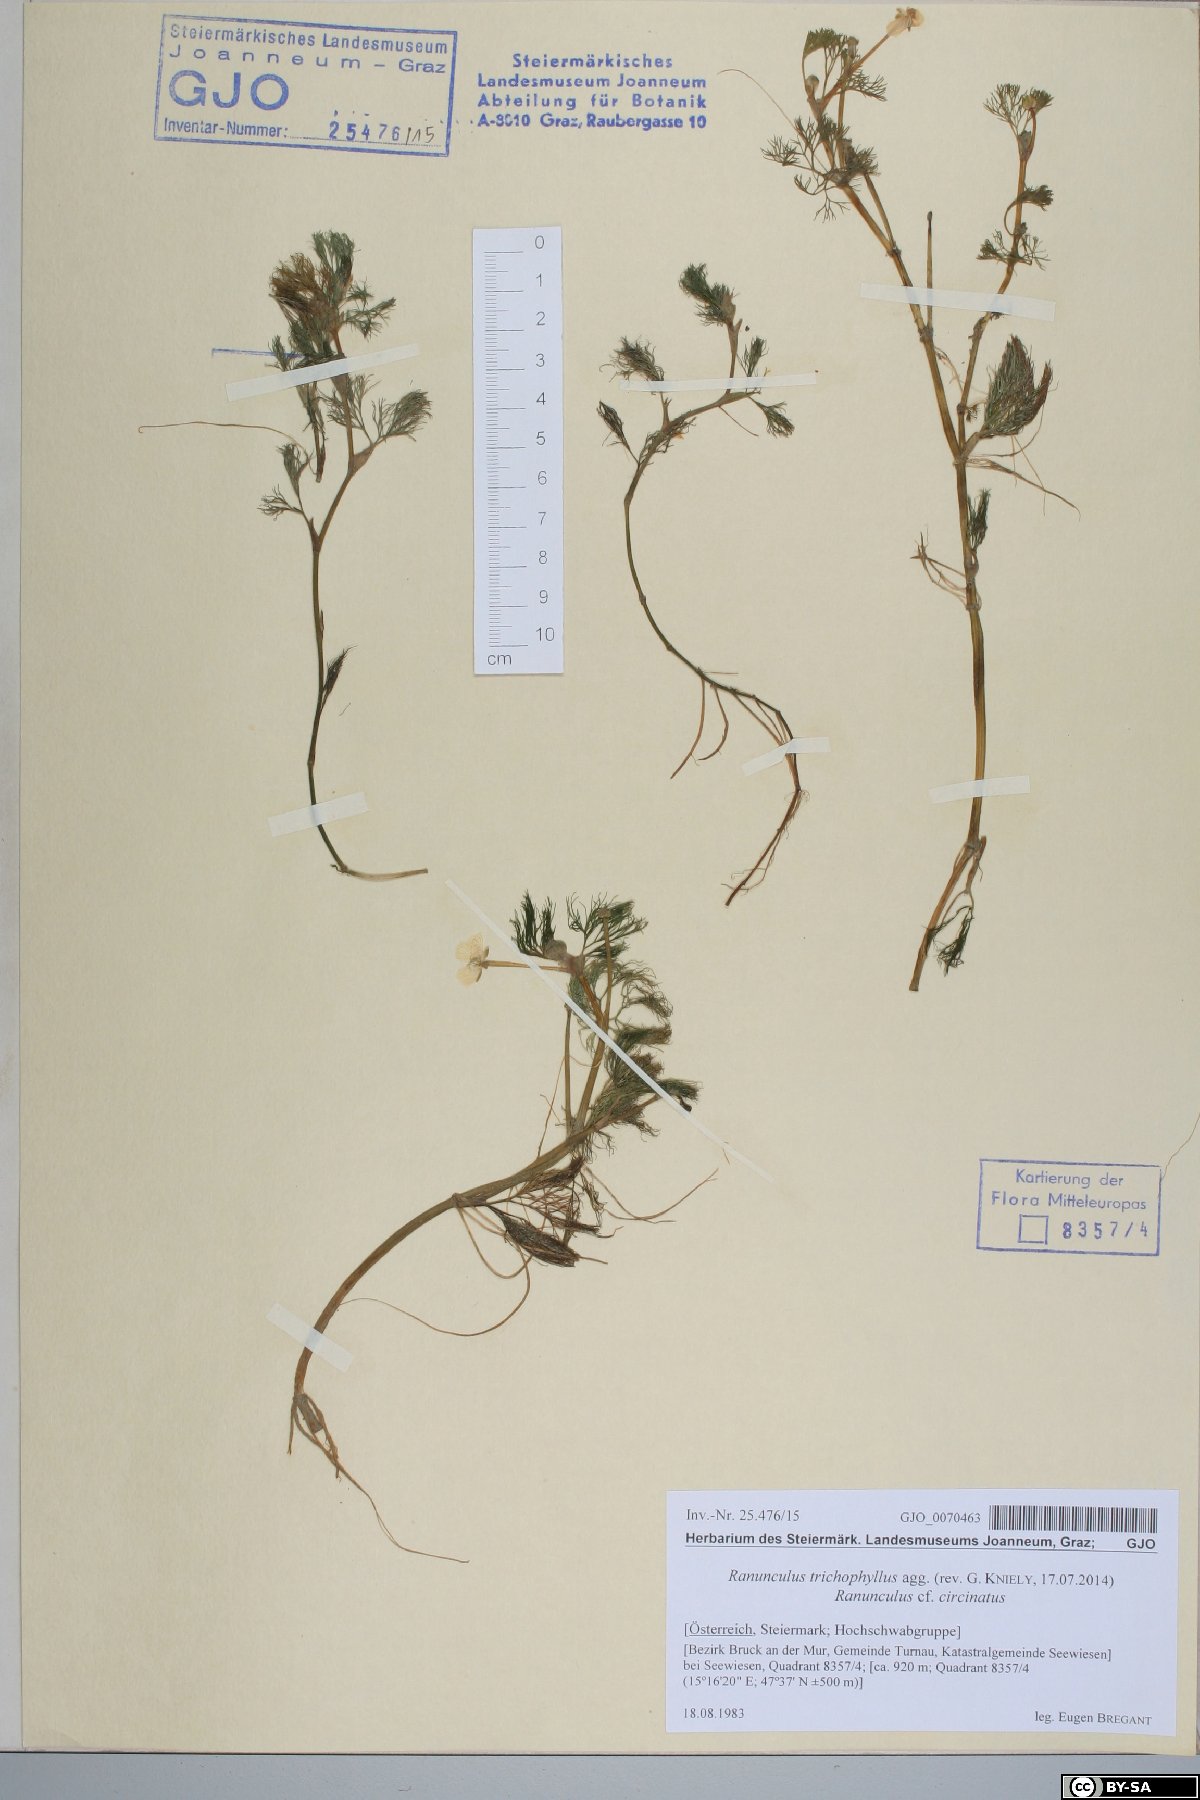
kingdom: Plantae
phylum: Tracheophyta
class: Magnoliopsida
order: Ranunculales
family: Ranunculaceae
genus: Ranunculus
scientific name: Ranunculus trichophyllus
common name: Thread-leaved water-crowfoot
